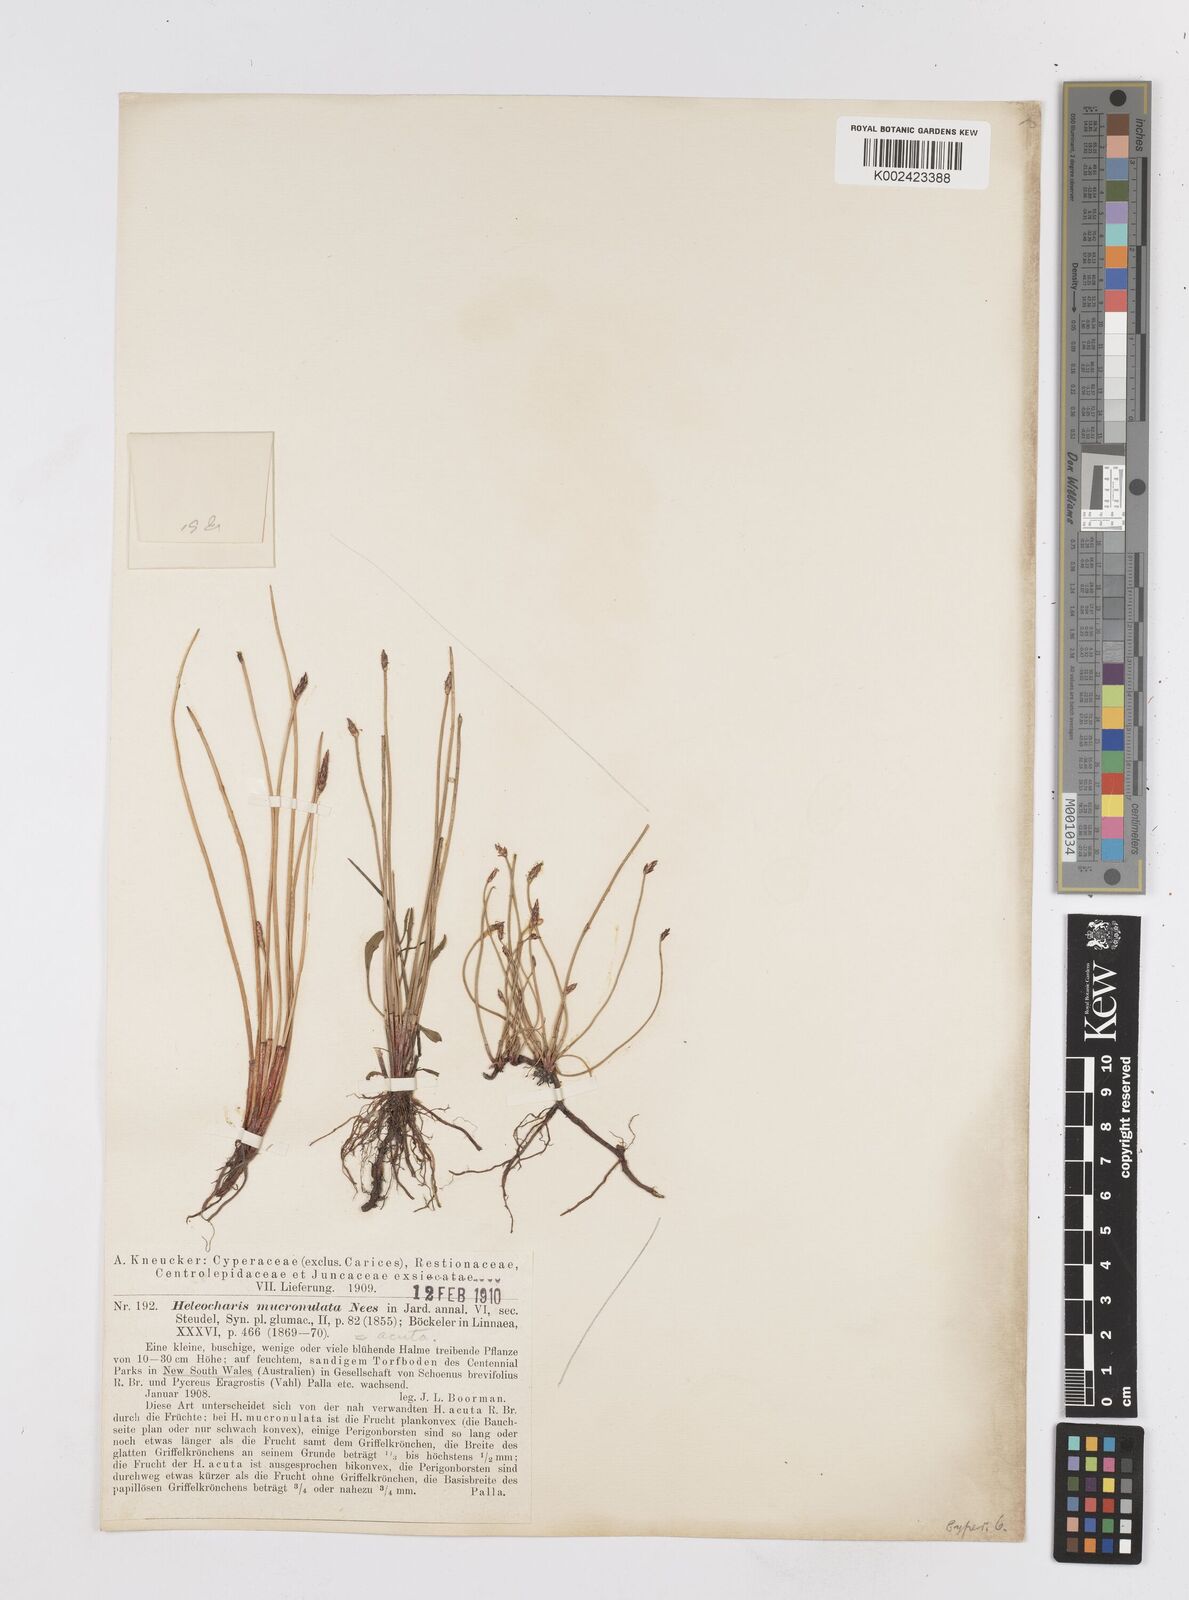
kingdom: Plantae
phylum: Tracheophyta
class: Liliopsida
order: Poales
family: Cyperaceae
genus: Eleocharis
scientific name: Eleocharis acuta
